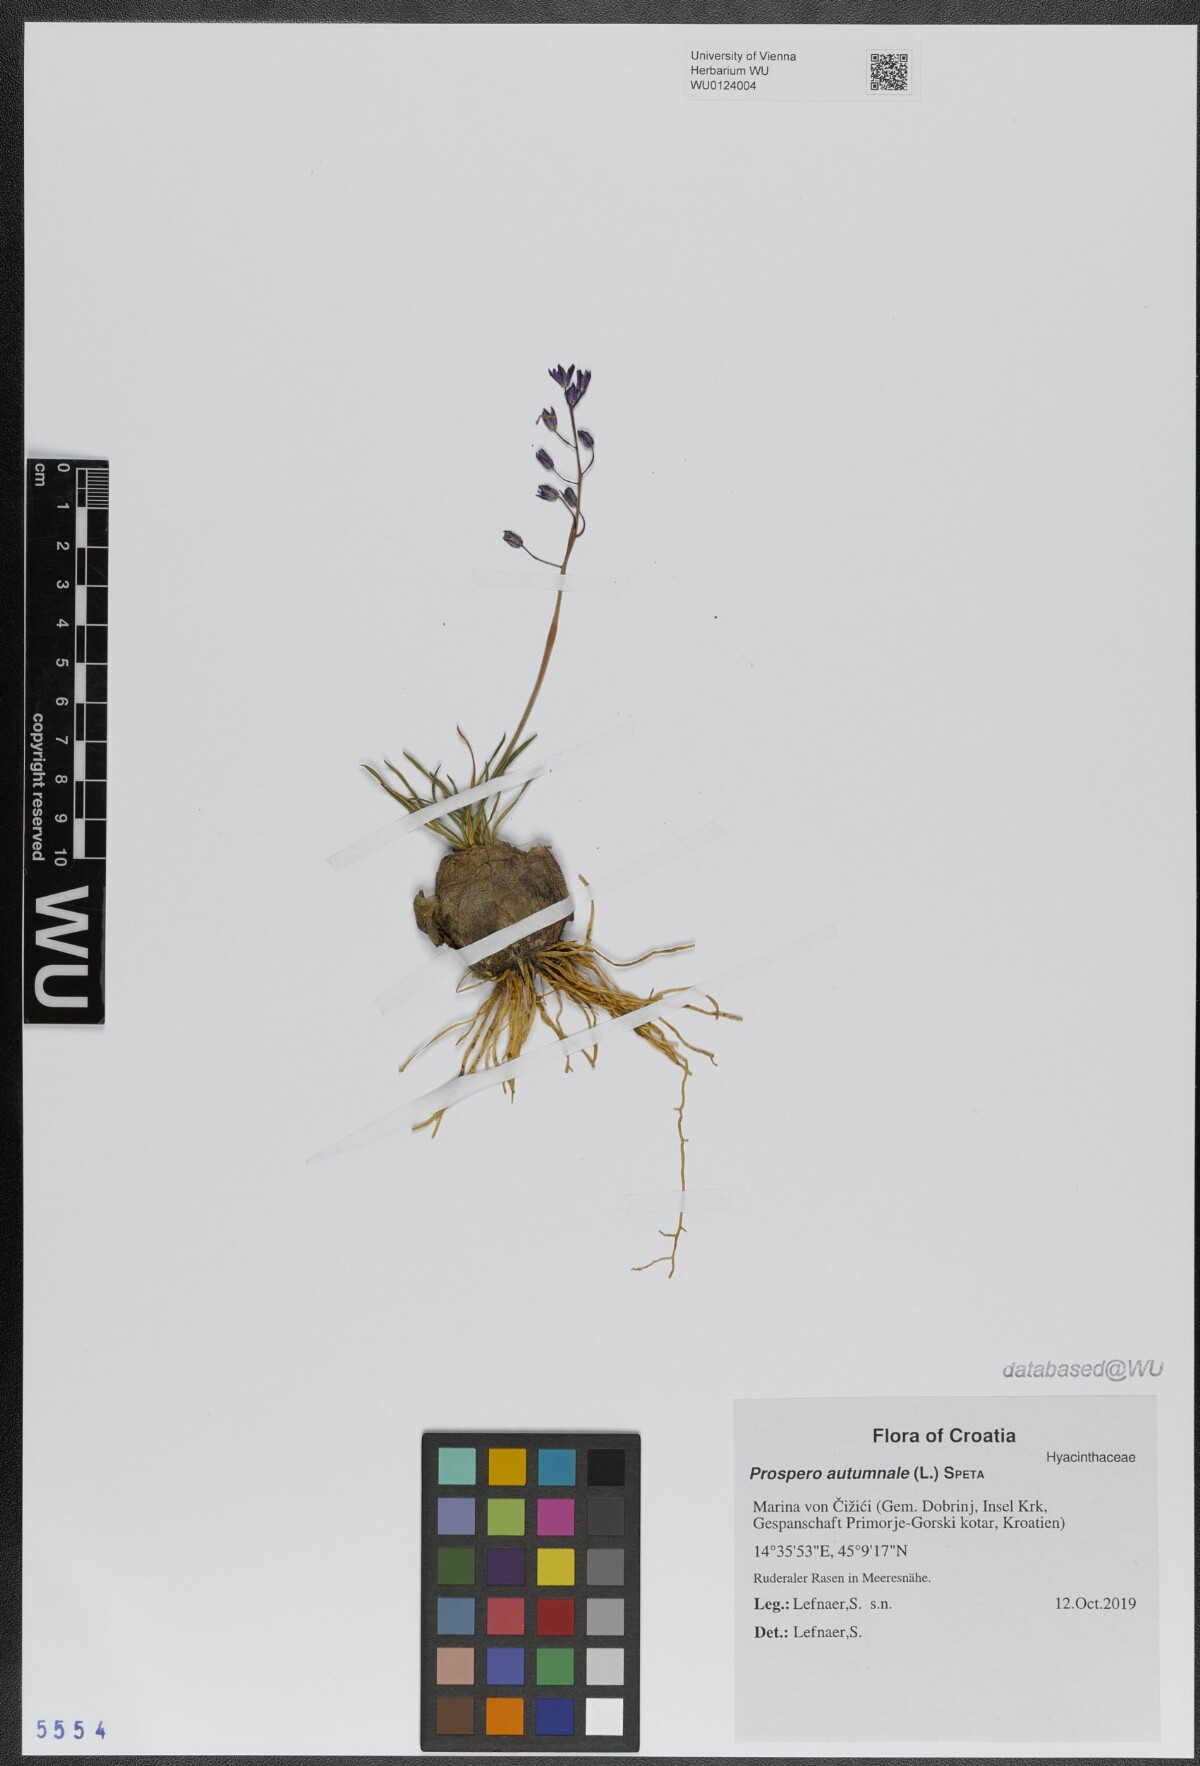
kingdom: Plantae
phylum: Tracheophyta
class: Liliopsida
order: Asparagales
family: Asparagaceae
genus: Prospero
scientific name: Prospero autumnale
